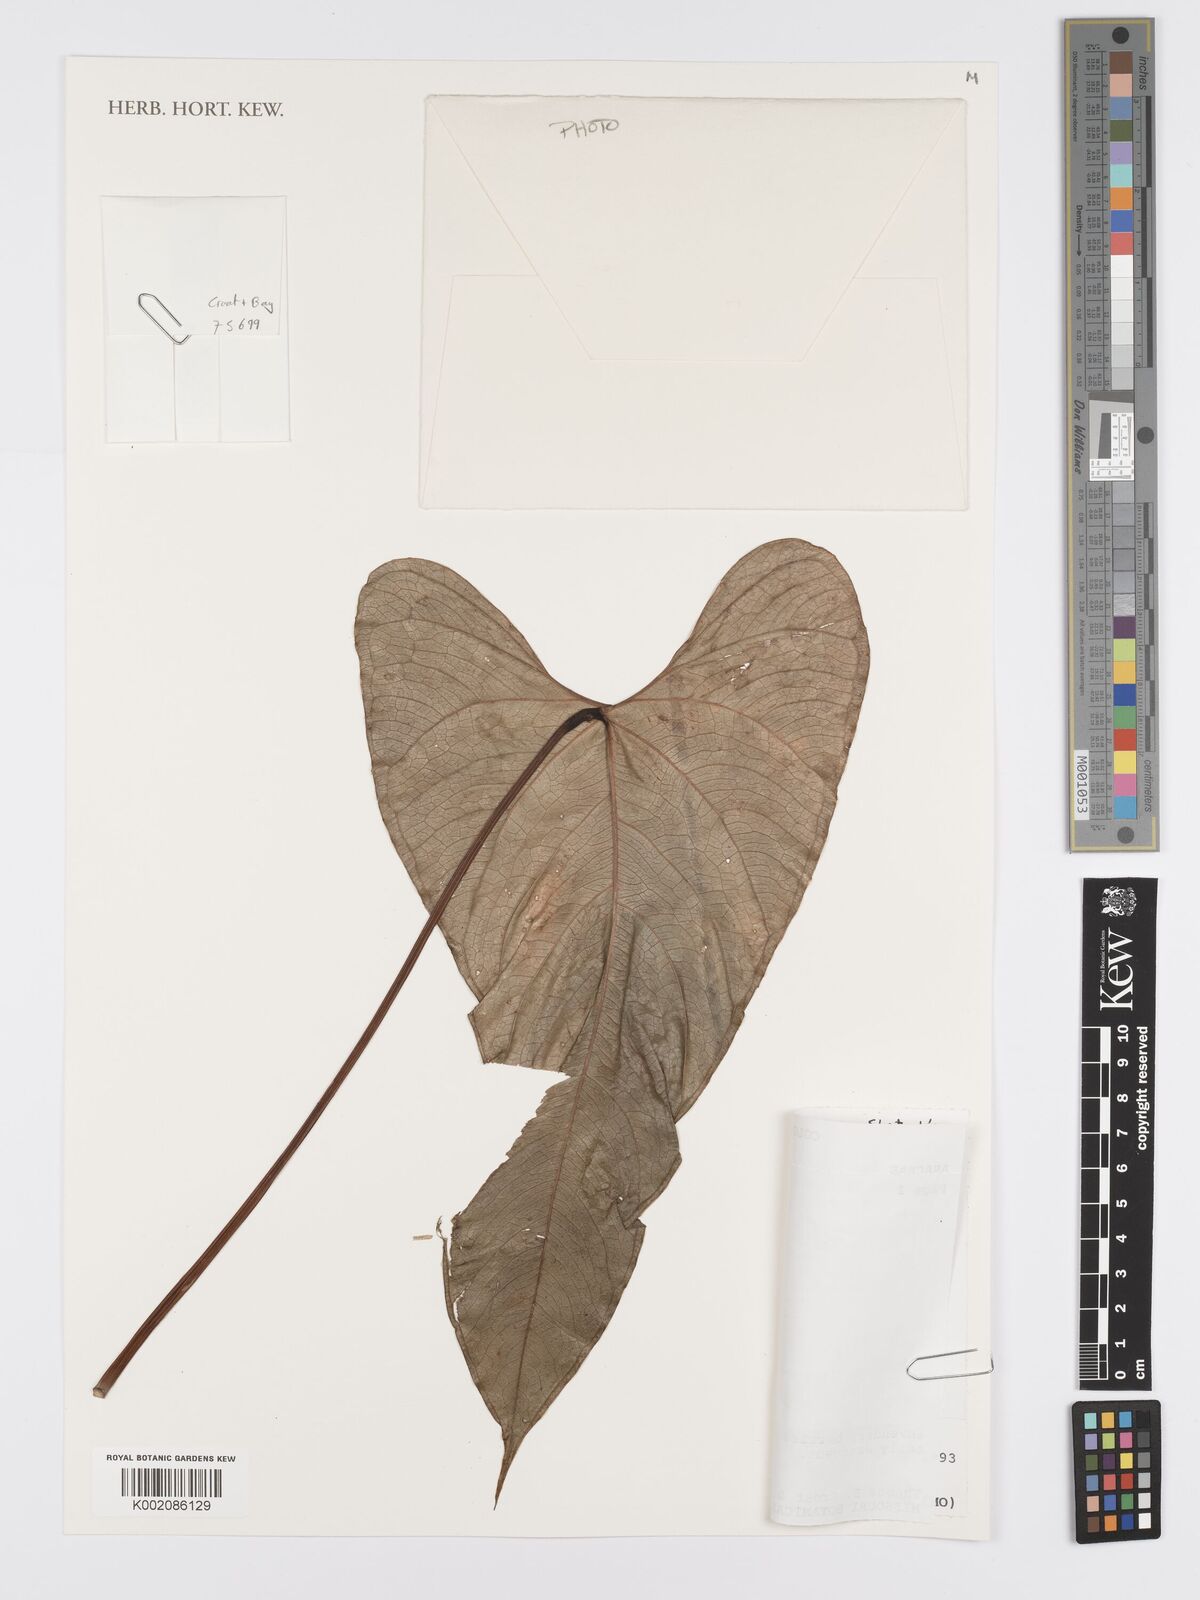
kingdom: Plantae
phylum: Tracheophyta
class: Liliopsida
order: Alismatales
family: Araceae
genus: Anthurium
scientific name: Anthurium fragrans
